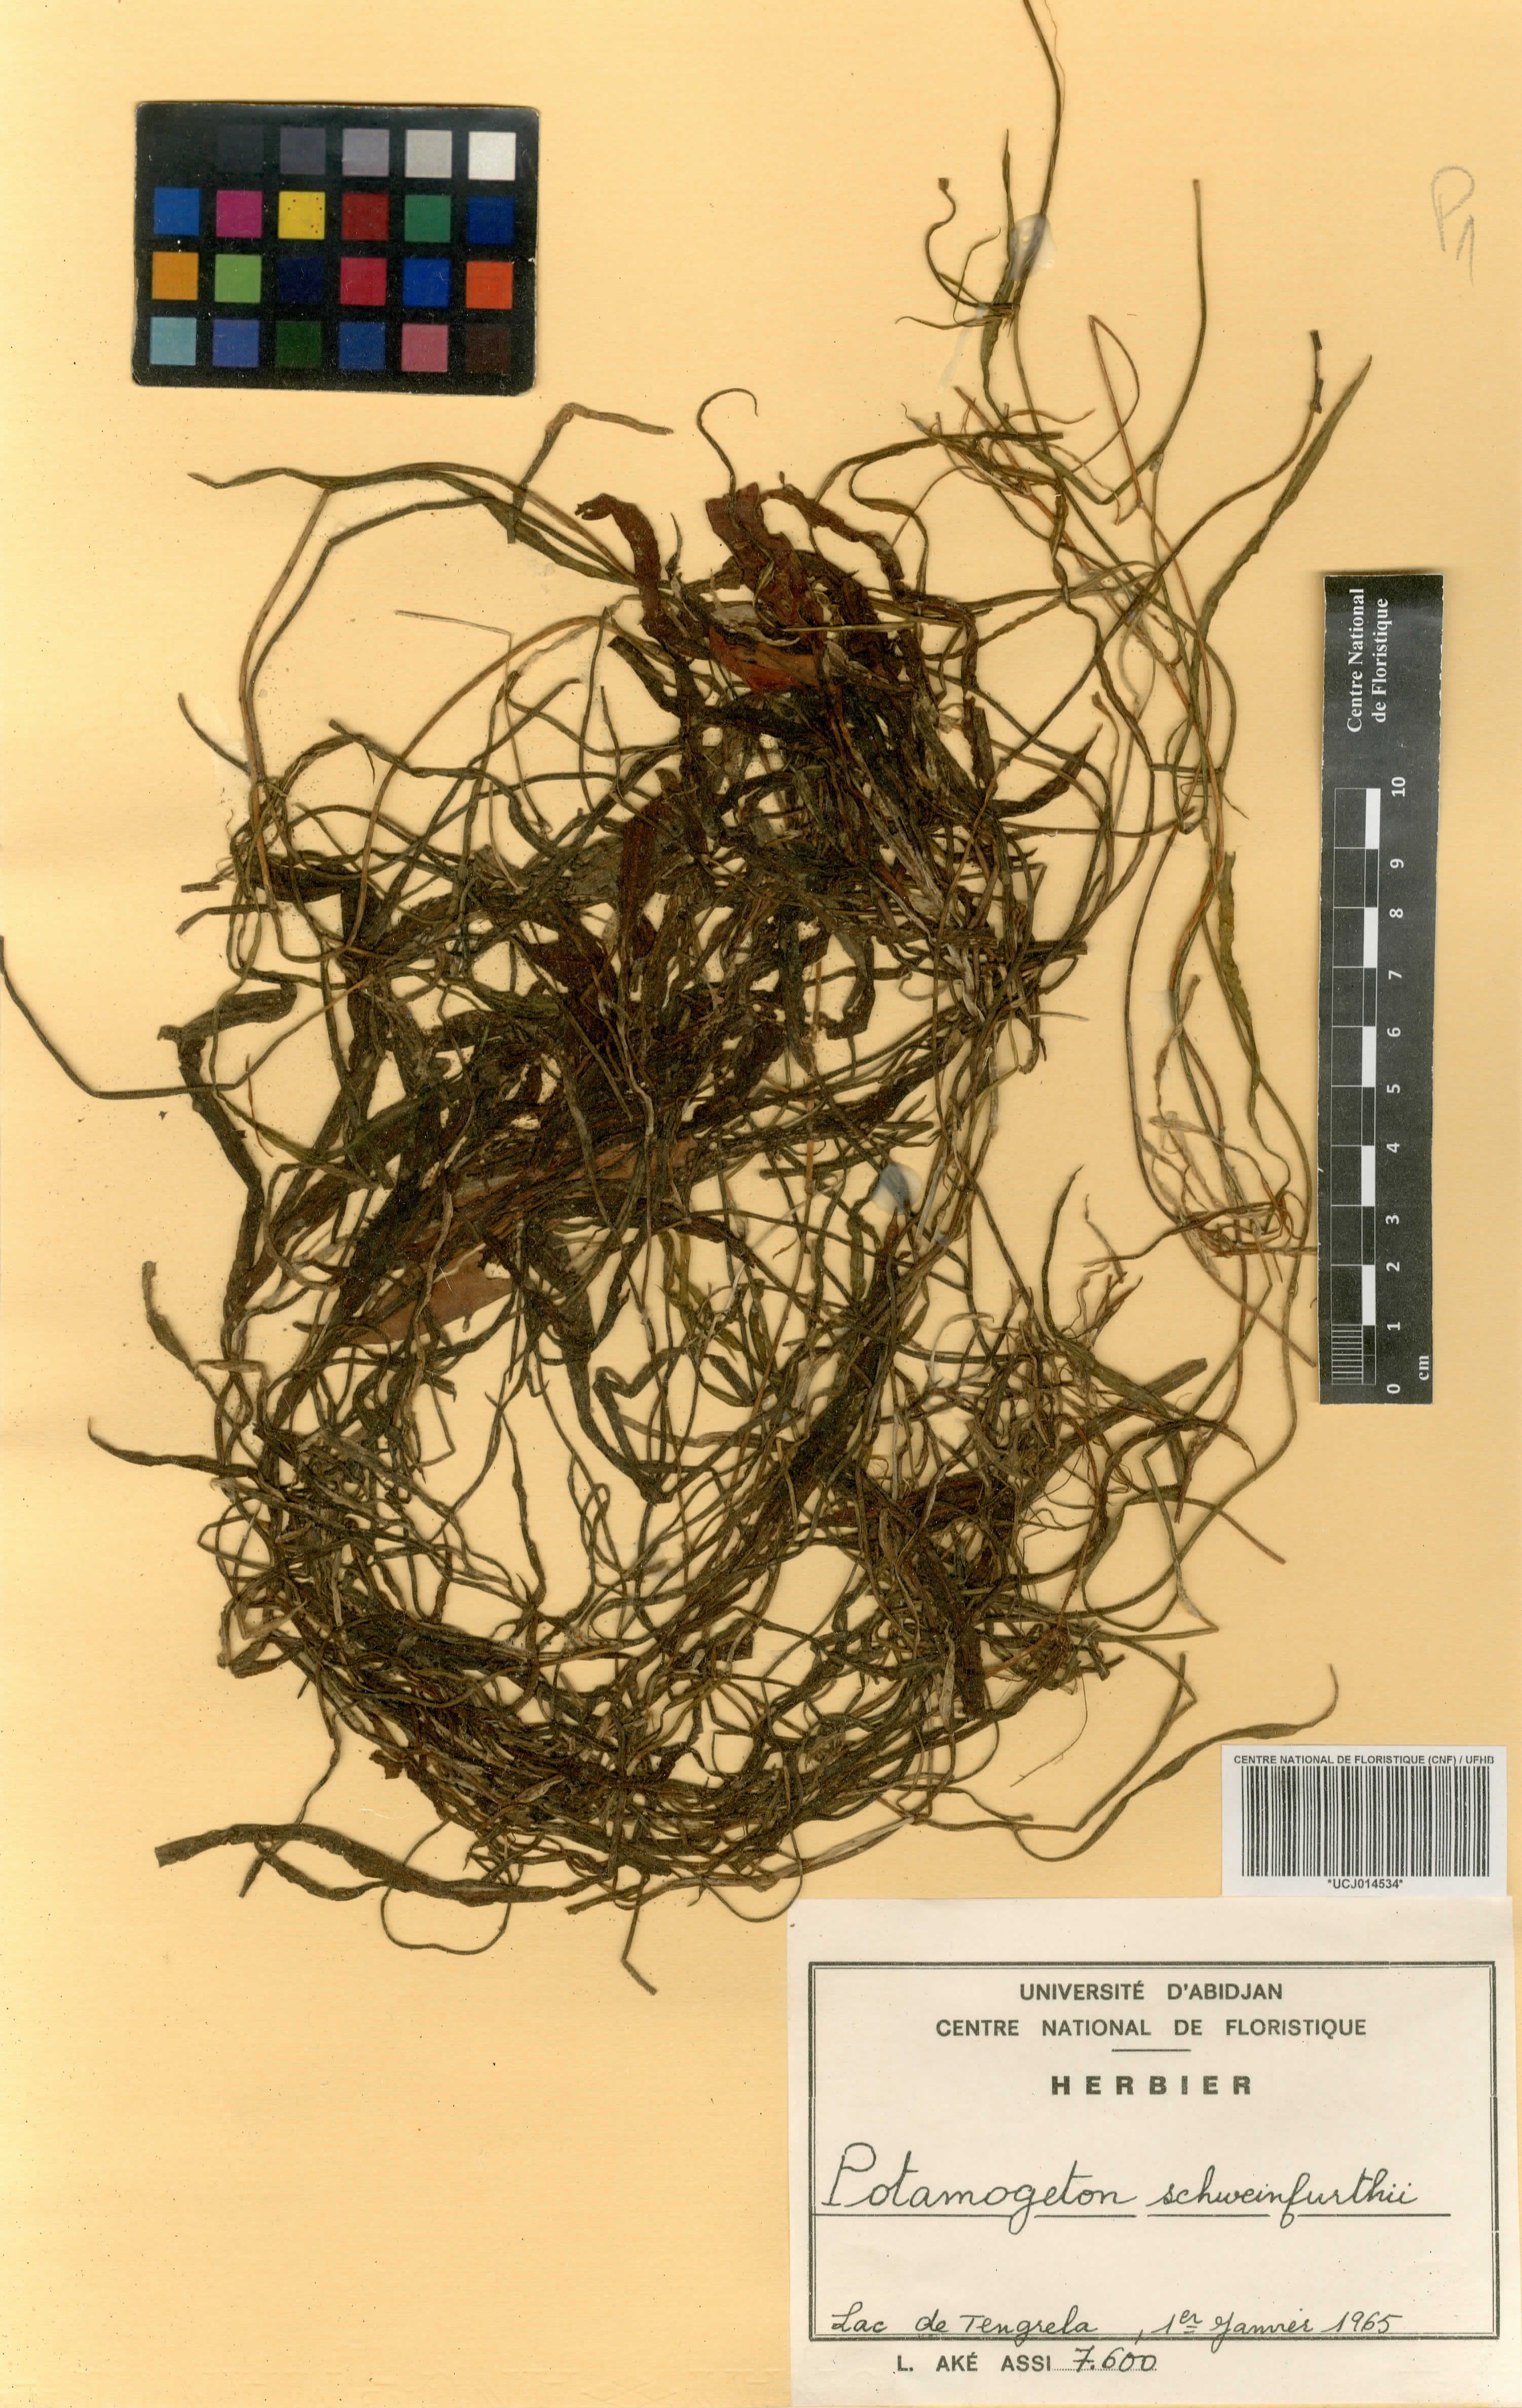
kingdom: Plantae
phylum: Tracheophyta
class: Liliopsida
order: Alismatales
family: Potamogetonaceae
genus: Potamogeton
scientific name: Potamogeton schweinfurthii
